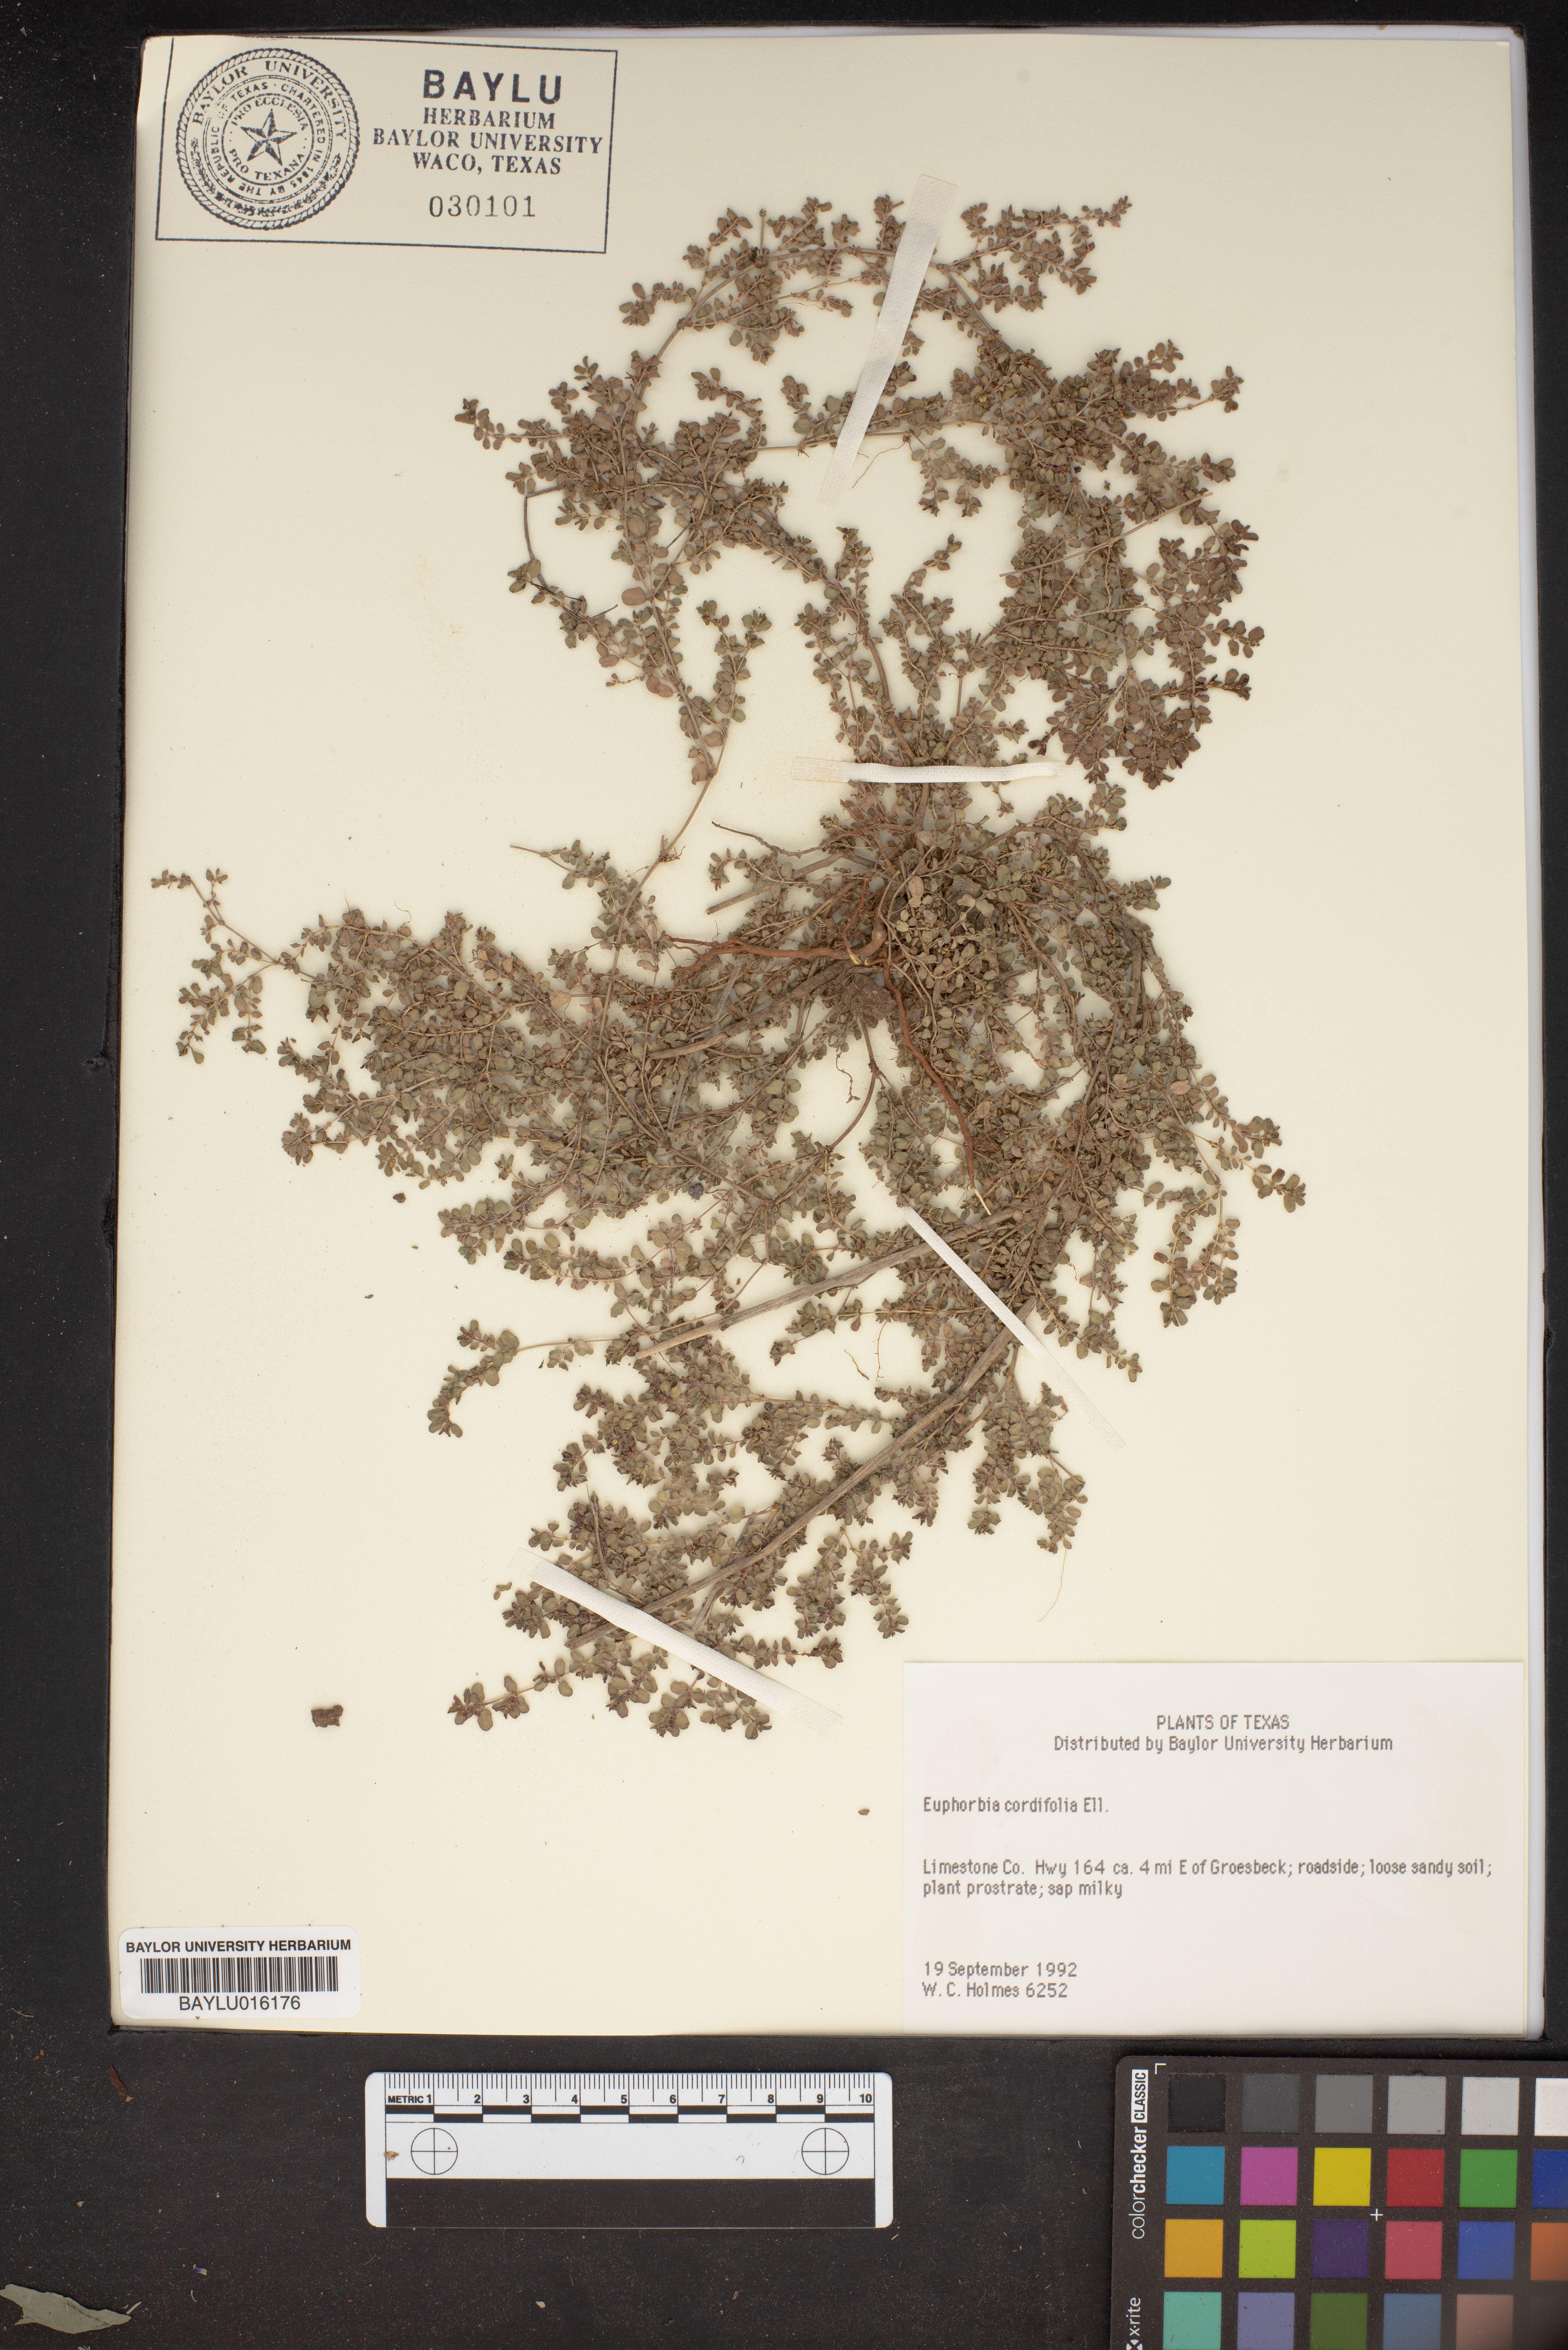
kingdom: Plantae
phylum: Tracheophyta
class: Magnoliopsida
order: Malpighiales
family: Euphorbiaceae
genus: Euphorbia
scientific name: Euphorbia cordifolia
